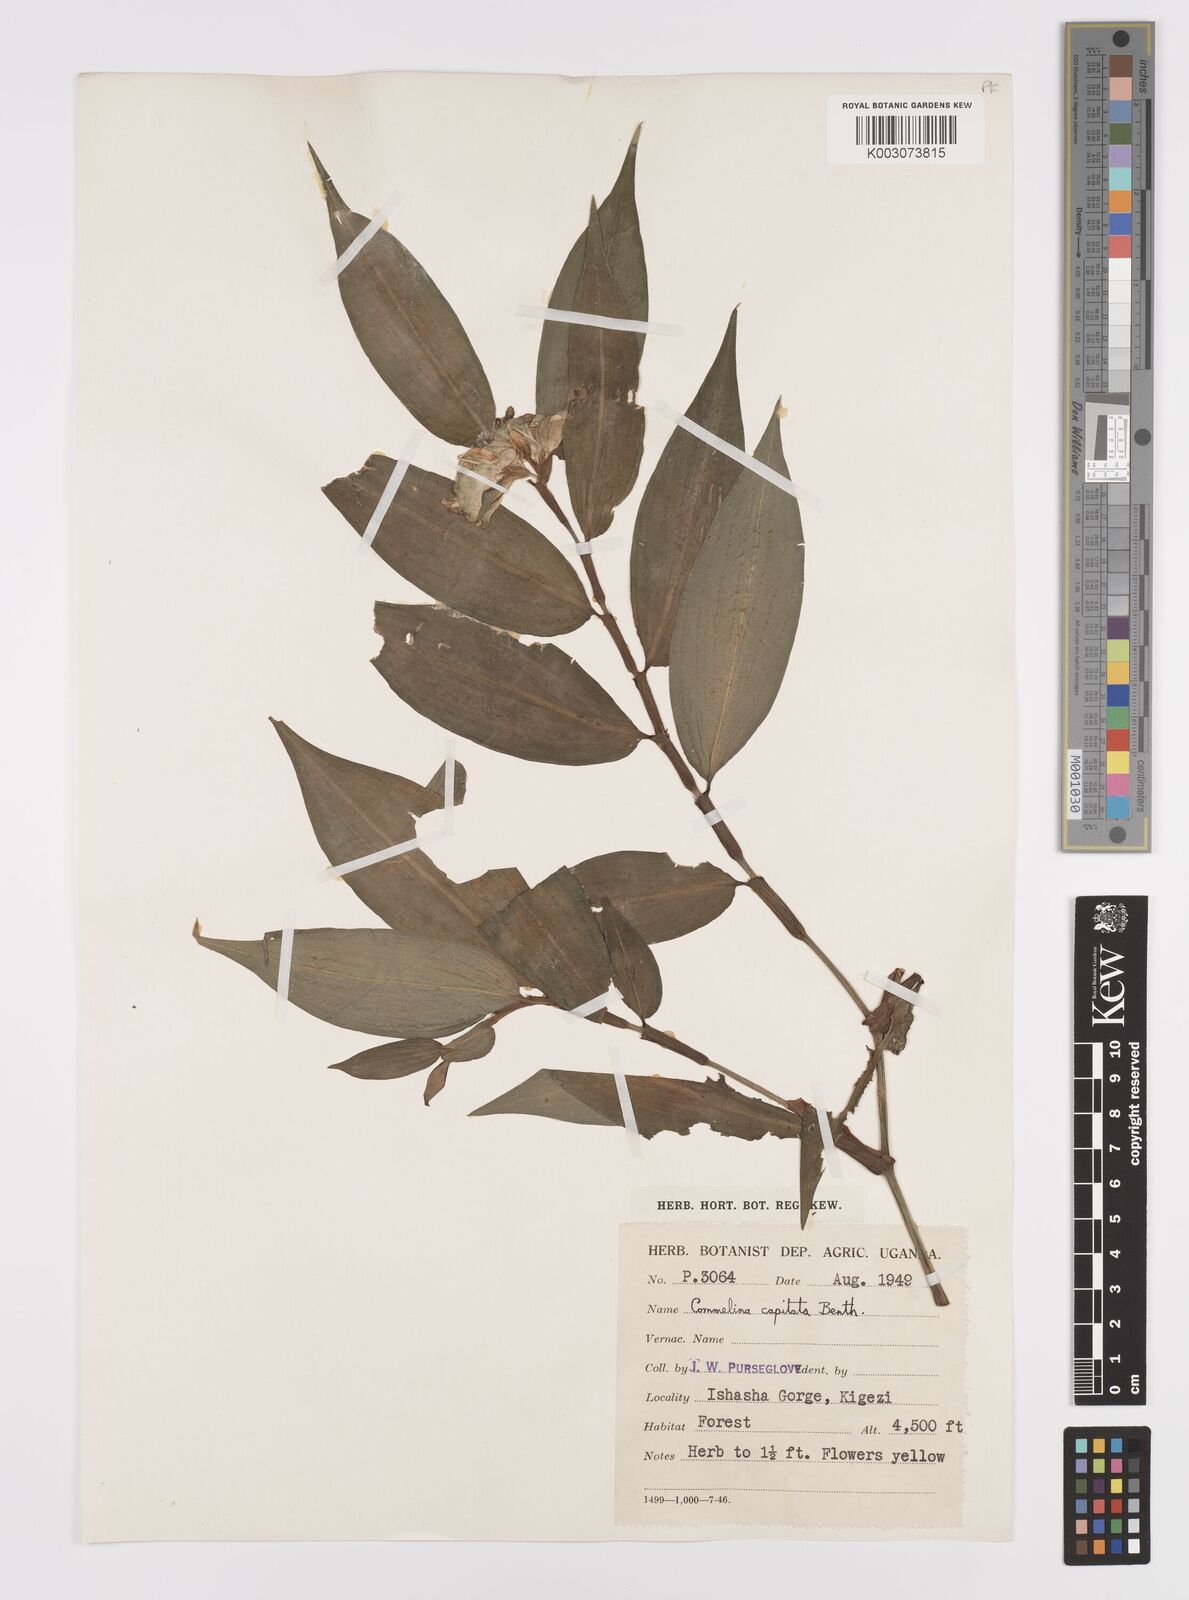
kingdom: Plantae
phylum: Tracheophyta
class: Liliopsida
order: Commelinales
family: Commelinaceae
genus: Commelina
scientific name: Commelina capitata
